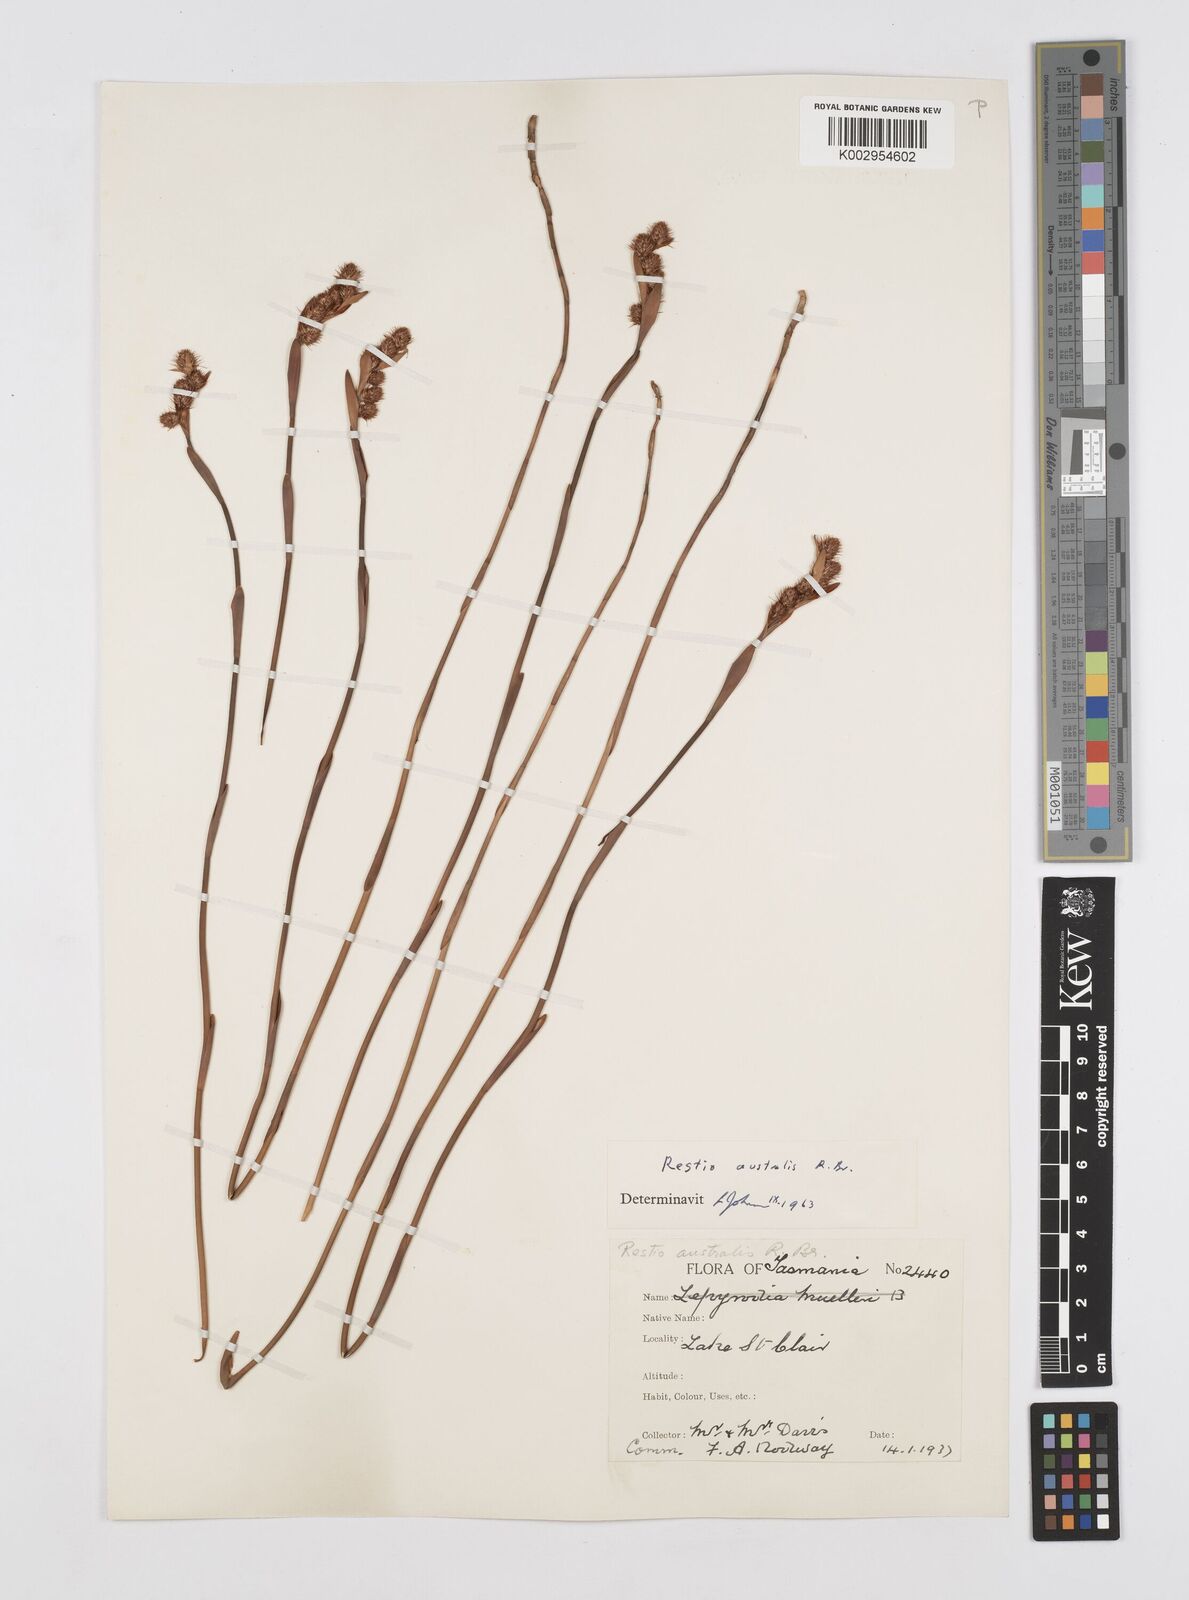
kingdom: Plantae
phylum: Tracheophyta
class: Liliopsida
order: Poales
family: Restionaceae
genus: Baloskion
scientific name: Baloskion australe
